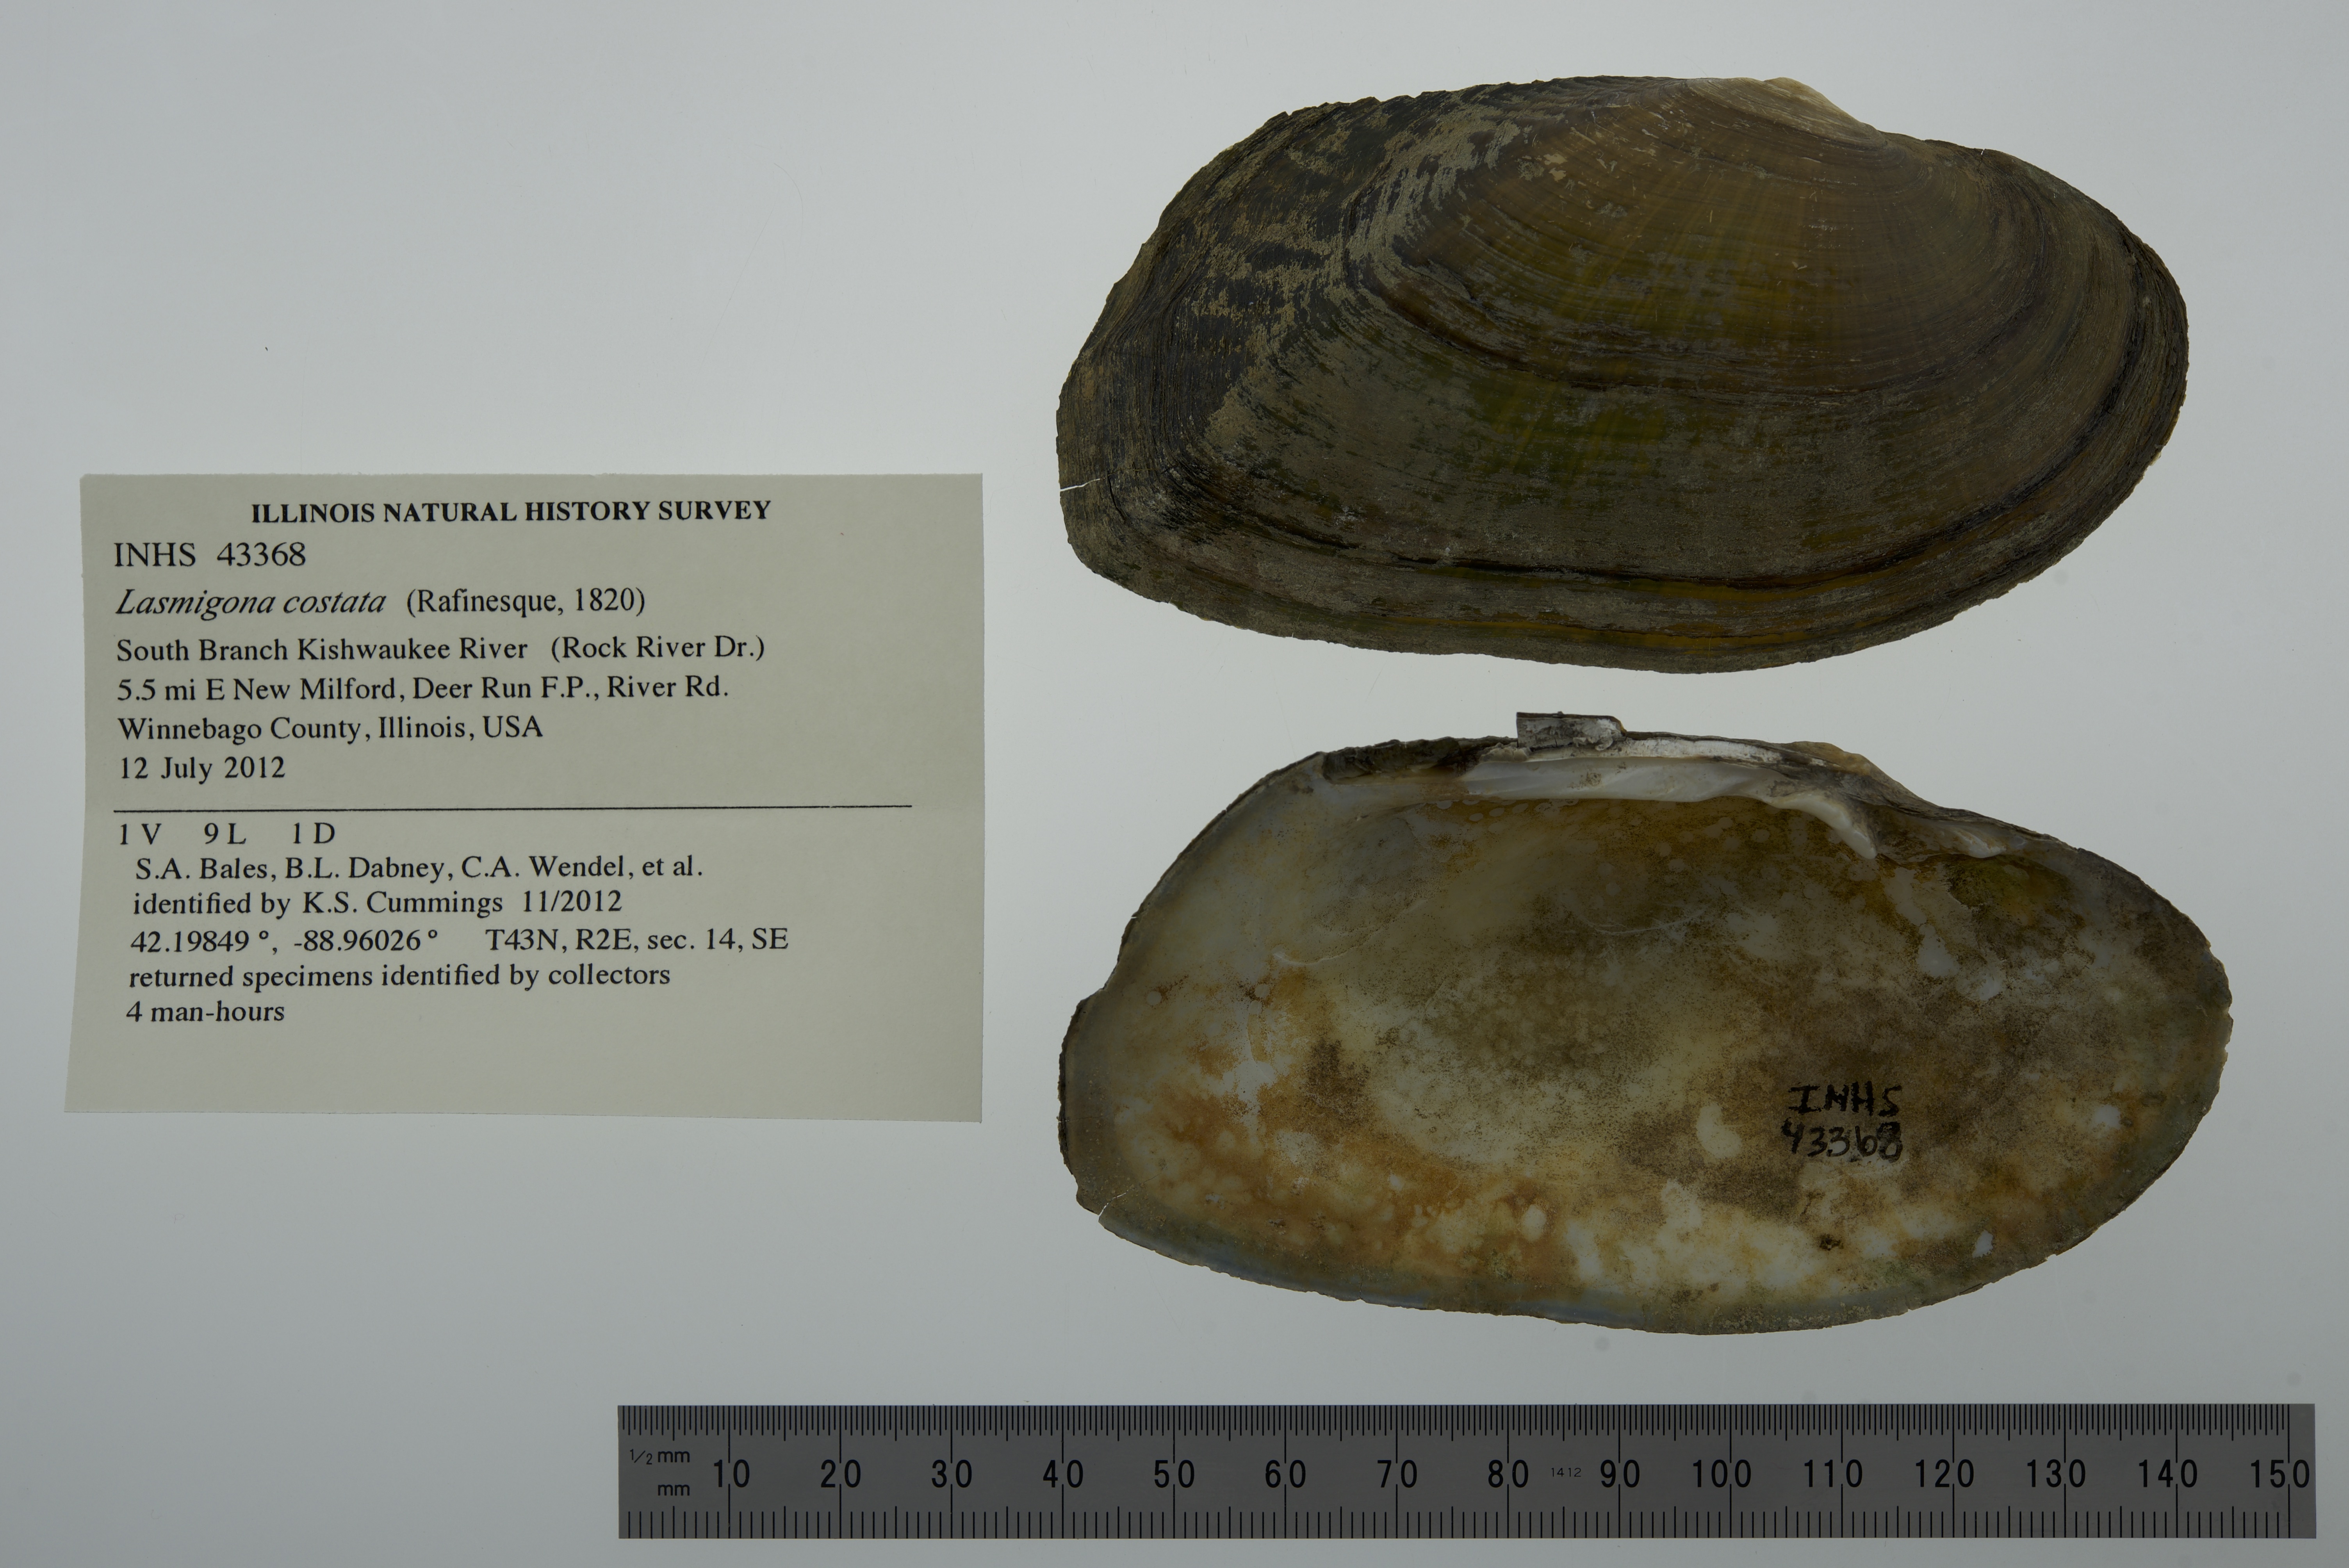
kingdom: Animalia
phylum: Mollusca
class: Bivalvia
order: Unionida
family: Unionidae
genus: Lasmigona
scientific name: Lasmigona costata
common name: Flutedshell
